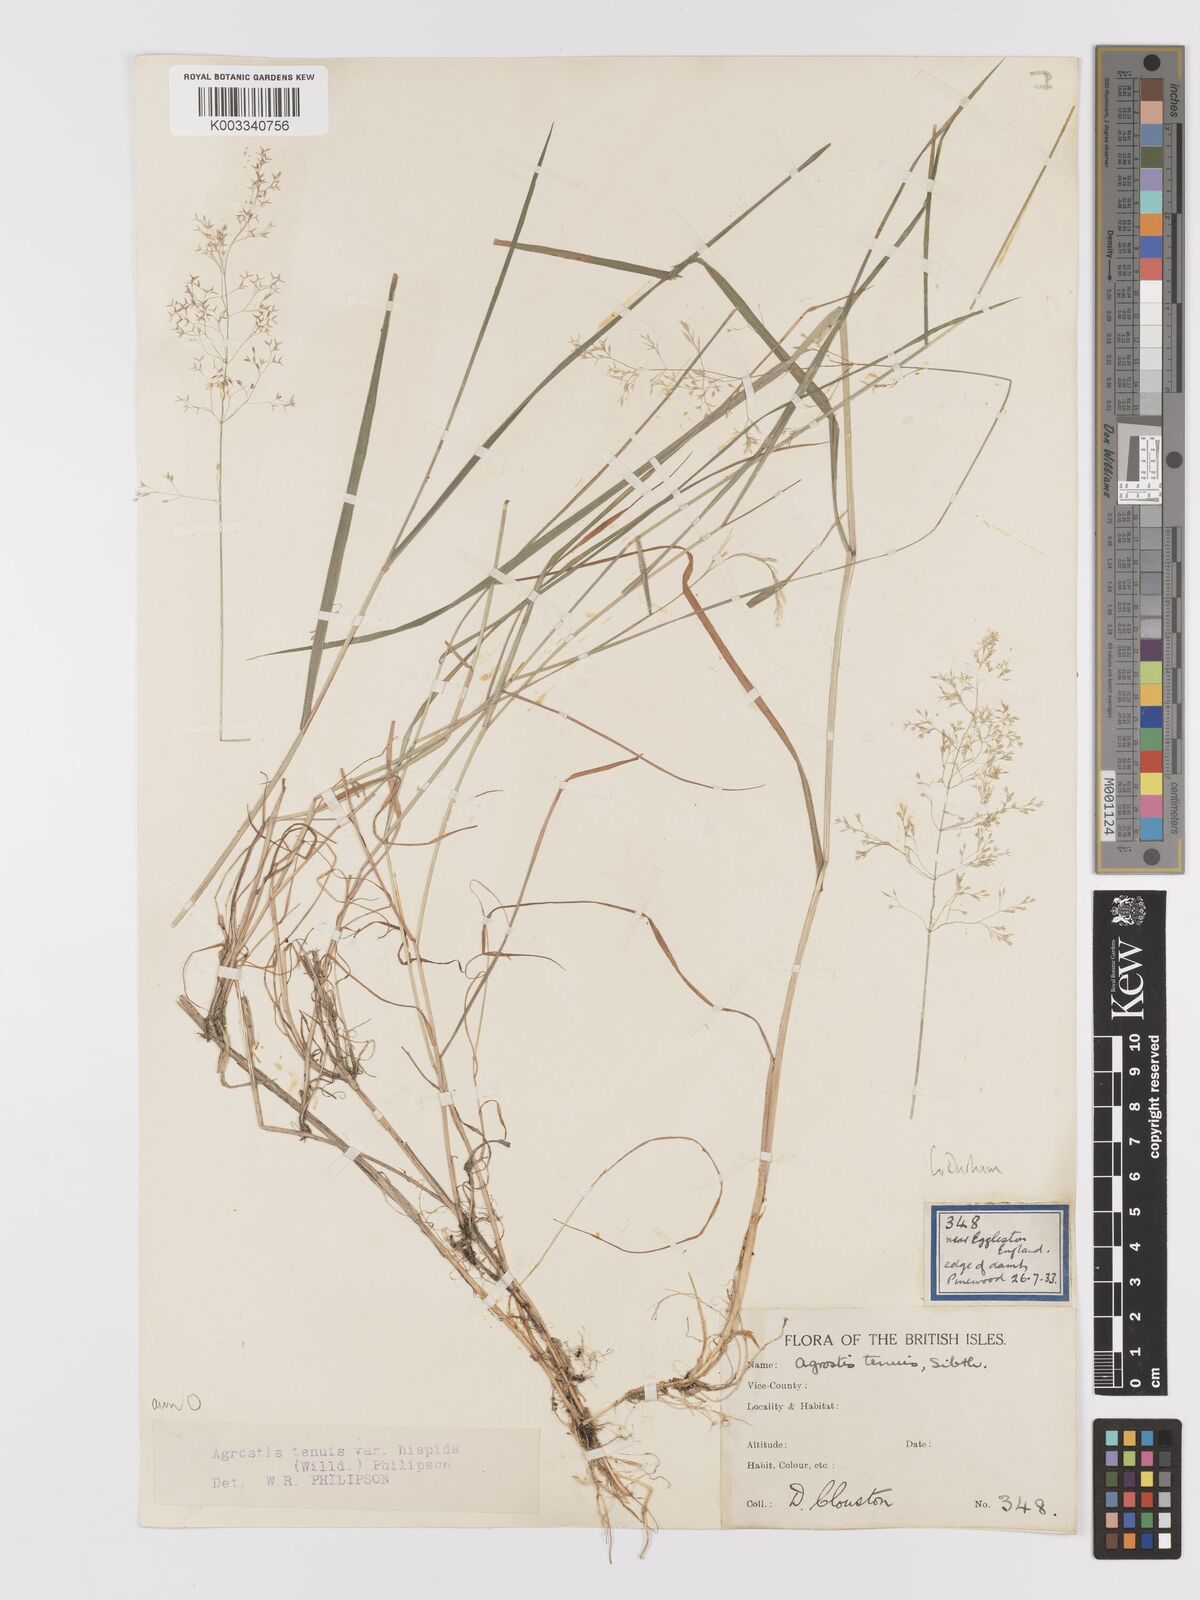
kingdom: Plantae
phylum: Tracheophyta
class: Liliopsida
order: Poales
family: Poaceae
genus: Agrostis
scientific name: Agrostis capillaris
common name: Colonial bentgrass
